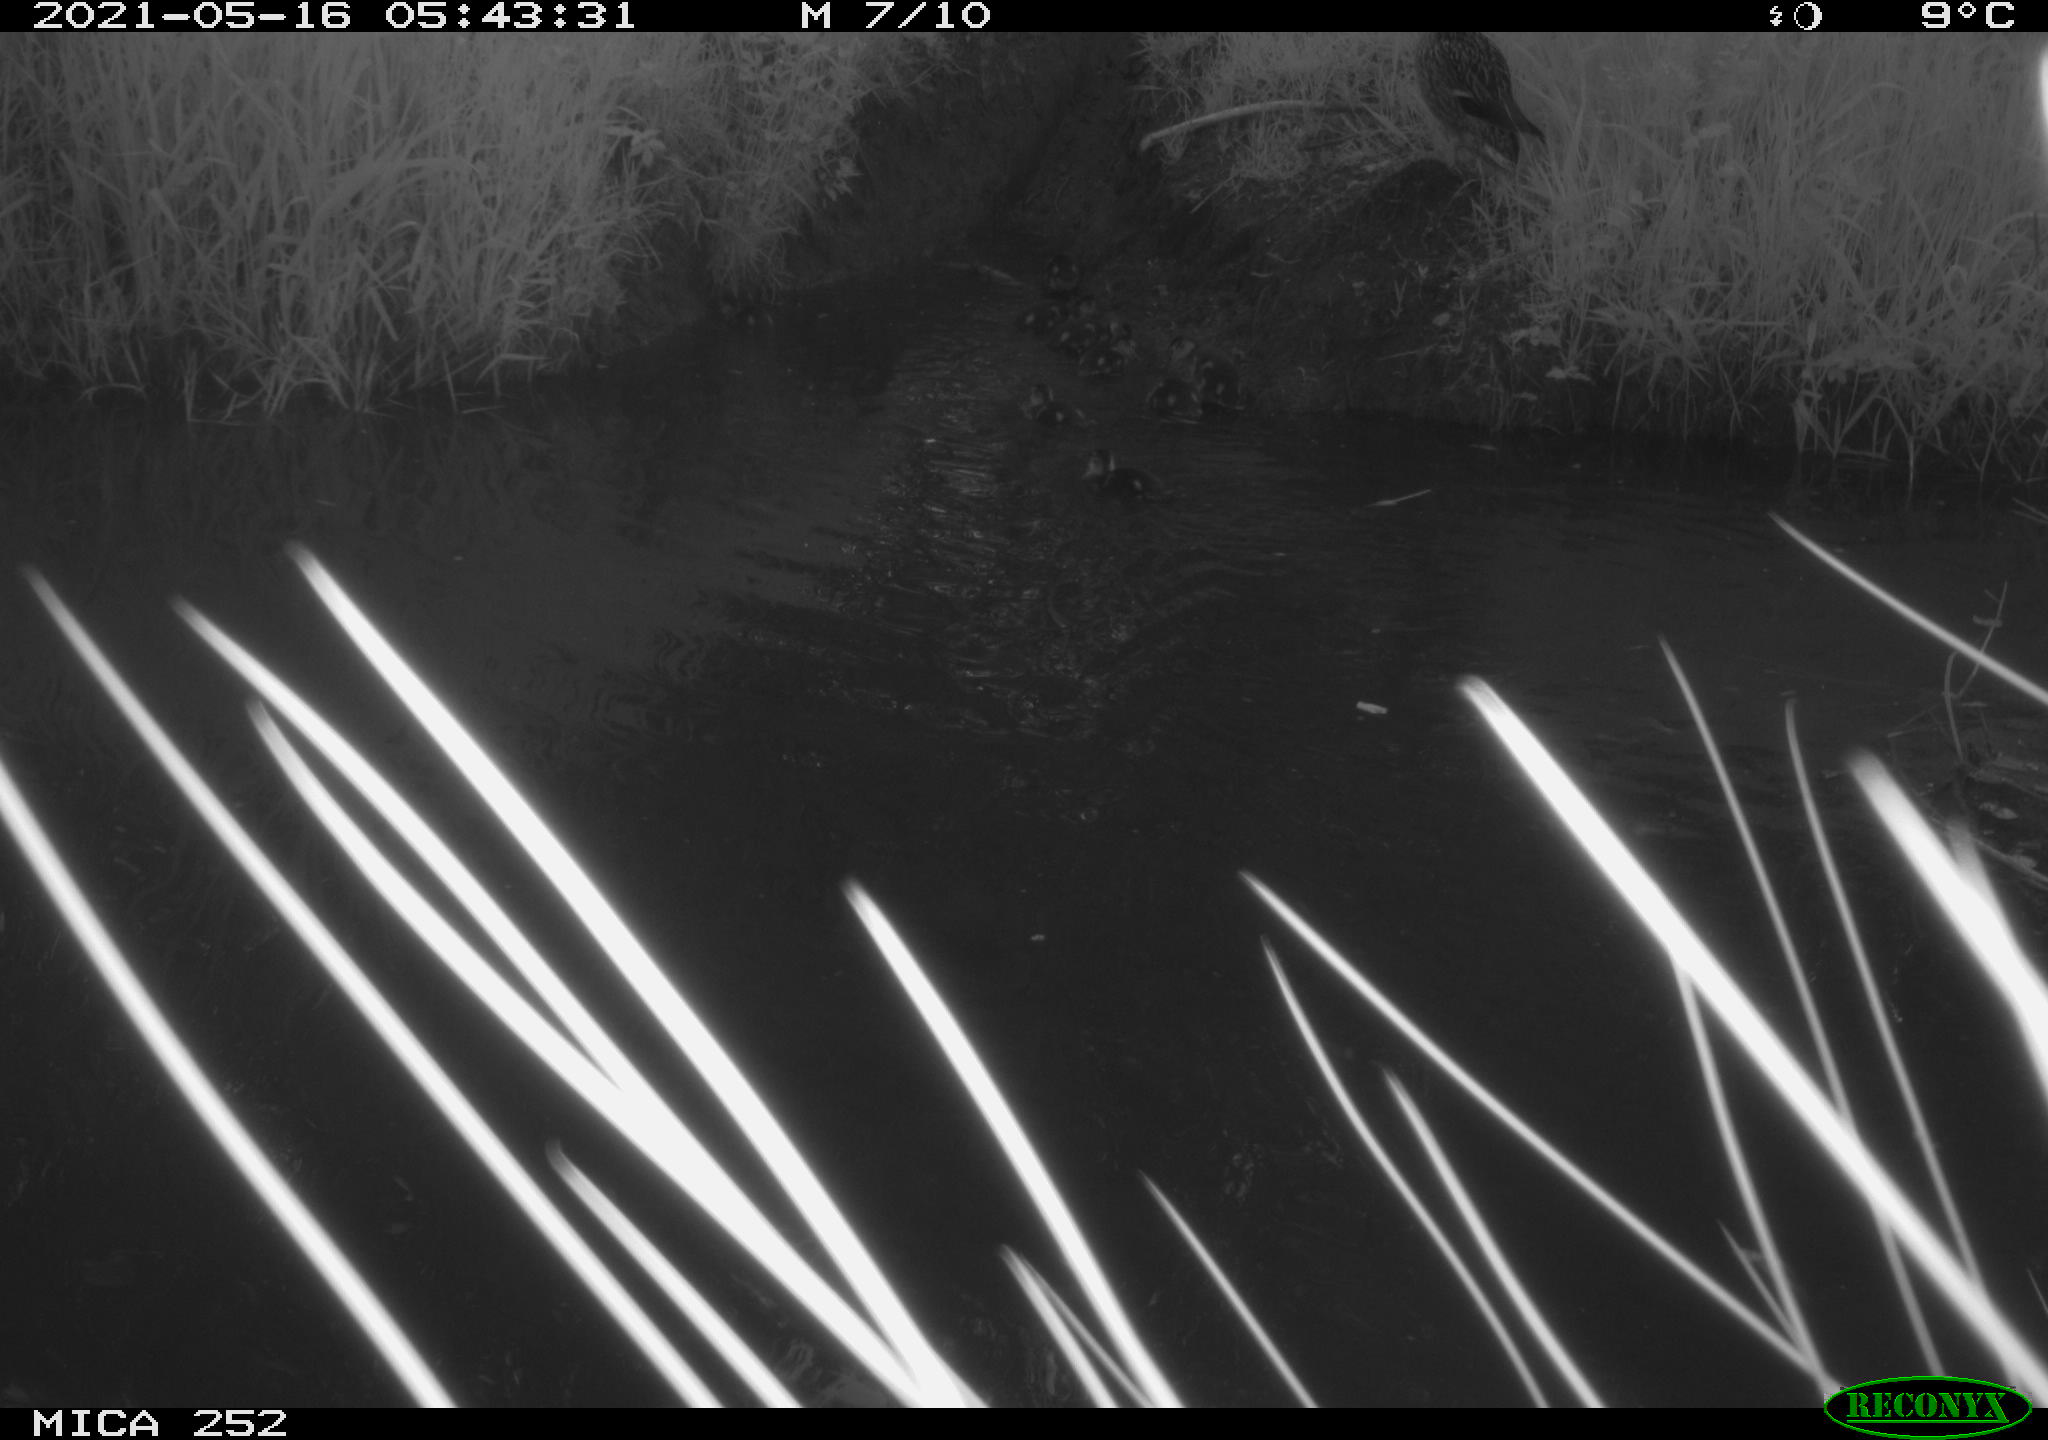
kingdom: Animalia
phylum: Chordata
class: Aves
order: Anseriformes
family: Anatidae
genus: Anas
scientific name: Anas platyrhynchos
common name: Mallard
